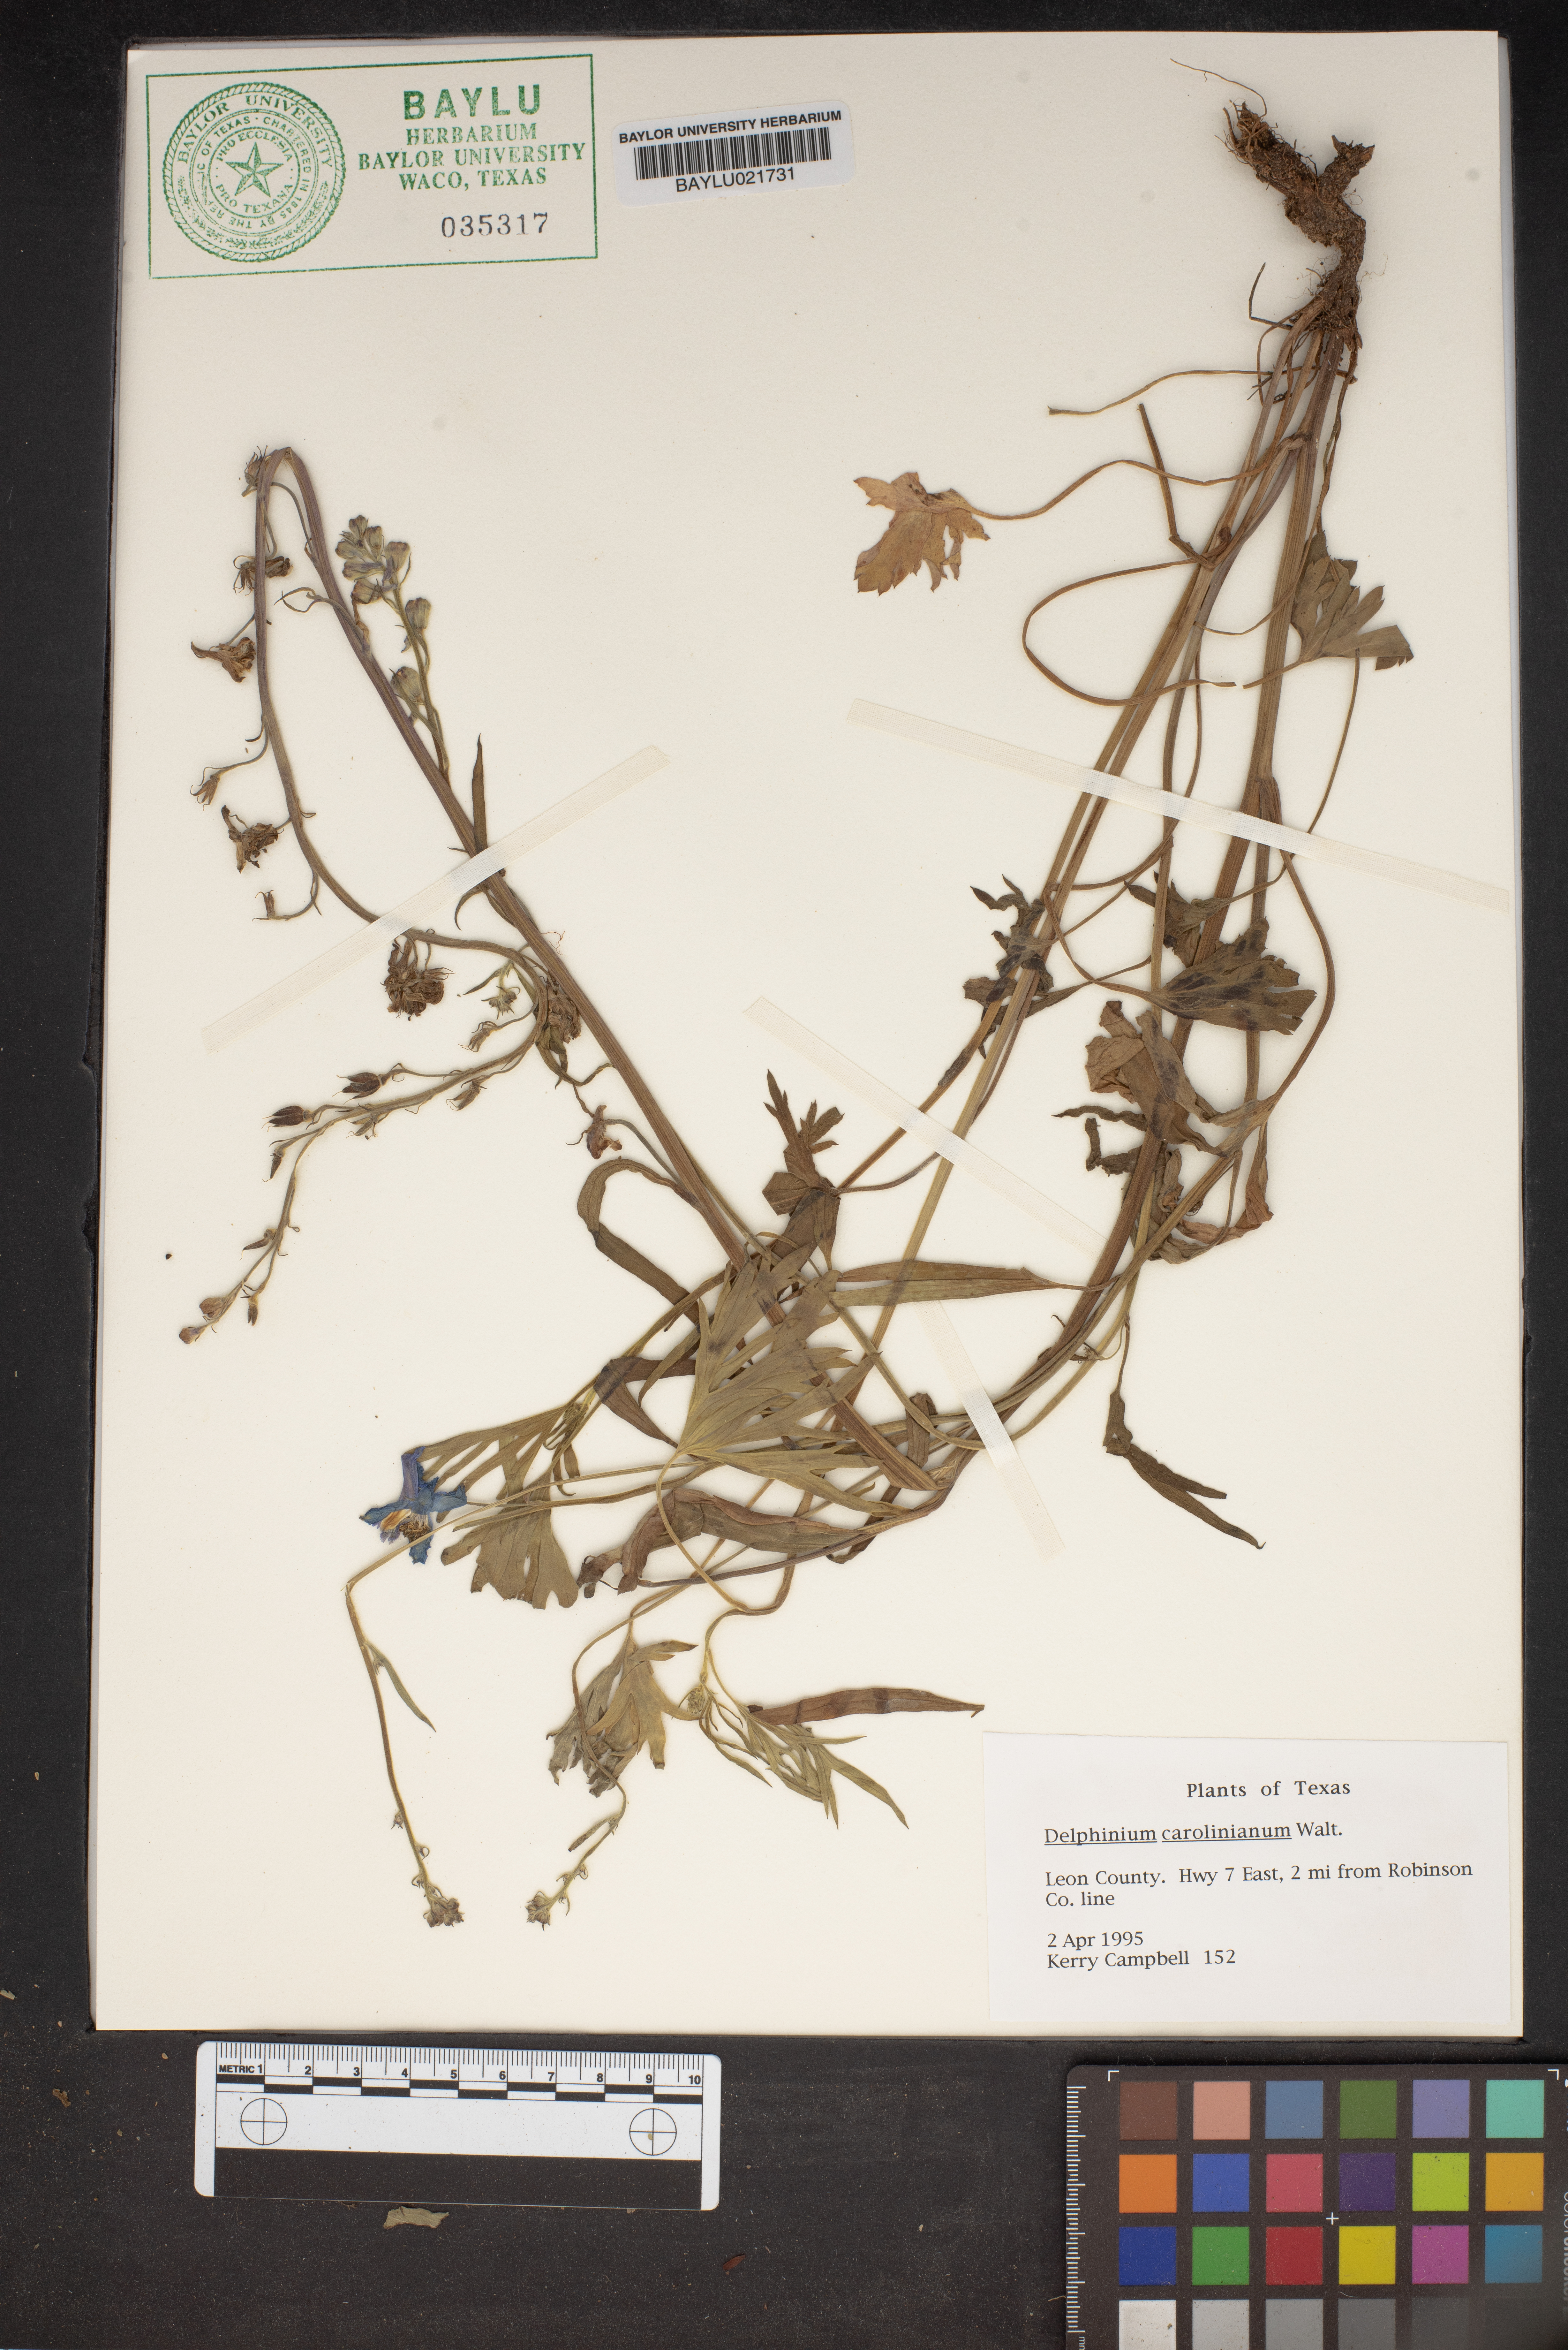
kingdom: Plantae
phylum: Tracheophyta
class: Magnoliopsida
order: Ranunculales
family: Ranunculaceae
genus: Delphinium
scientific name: Delphinium carolinianum
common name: Carolina larkspur
